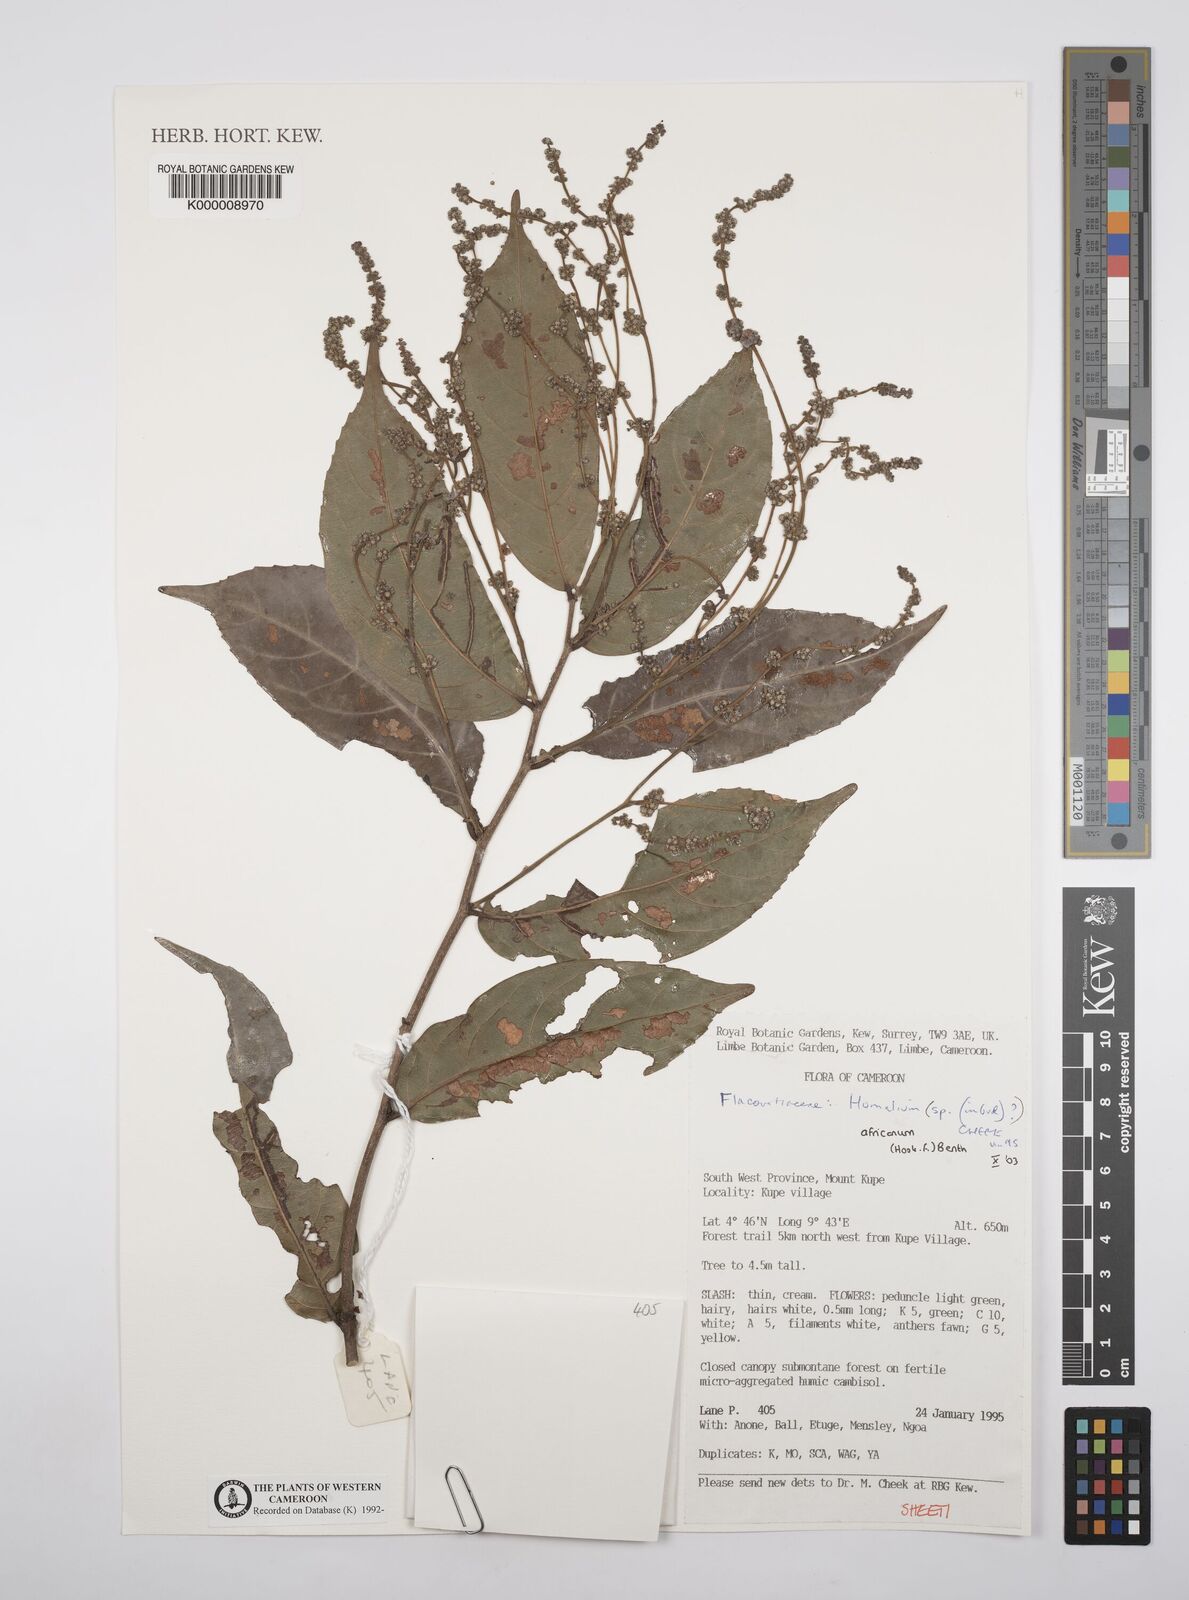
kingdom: Plantae
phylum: Tracheophyta
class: Magnoliopsida
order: Malpighiales
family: Salicaceae
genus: Homalium
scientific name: Homalium africanum
